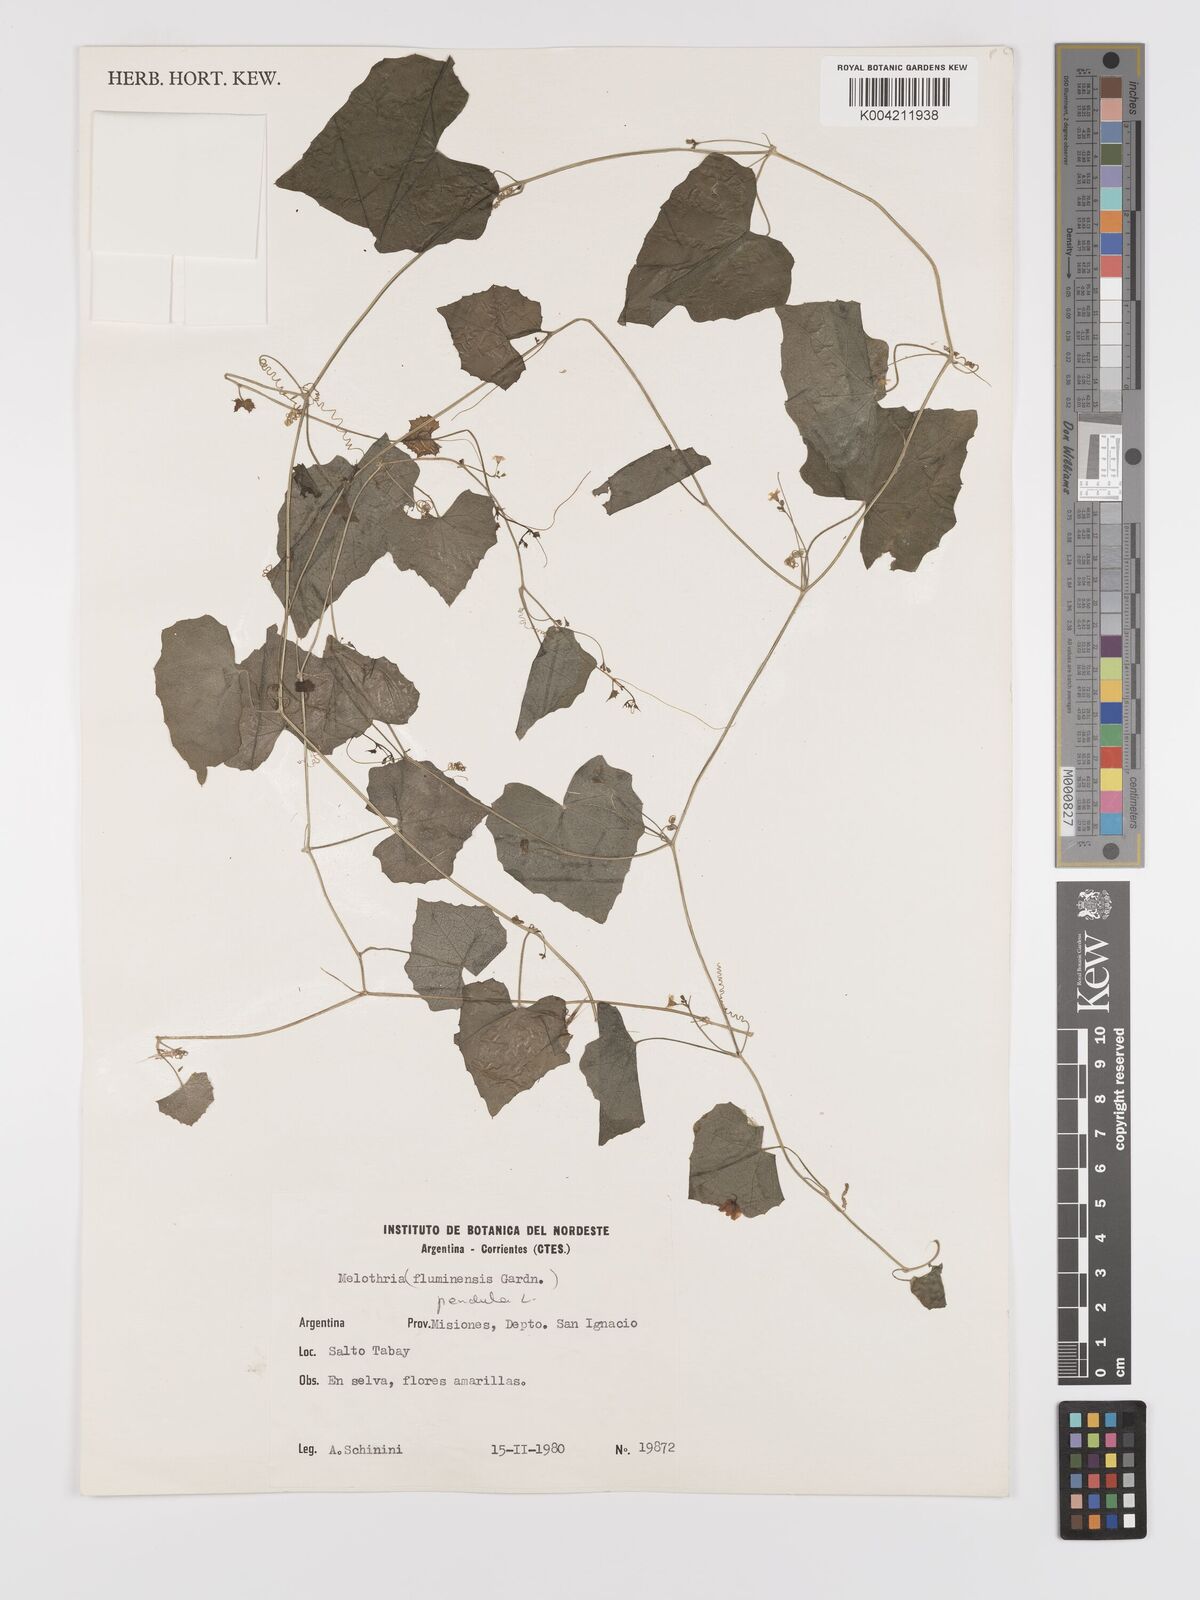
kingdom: Plantae
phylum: Tracheophyta
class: Magnoliopsida
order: Cucurbitales
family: Cucurbitaceae
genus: Melothria
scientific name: Melothria pendula
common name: Creeping-cucumber
